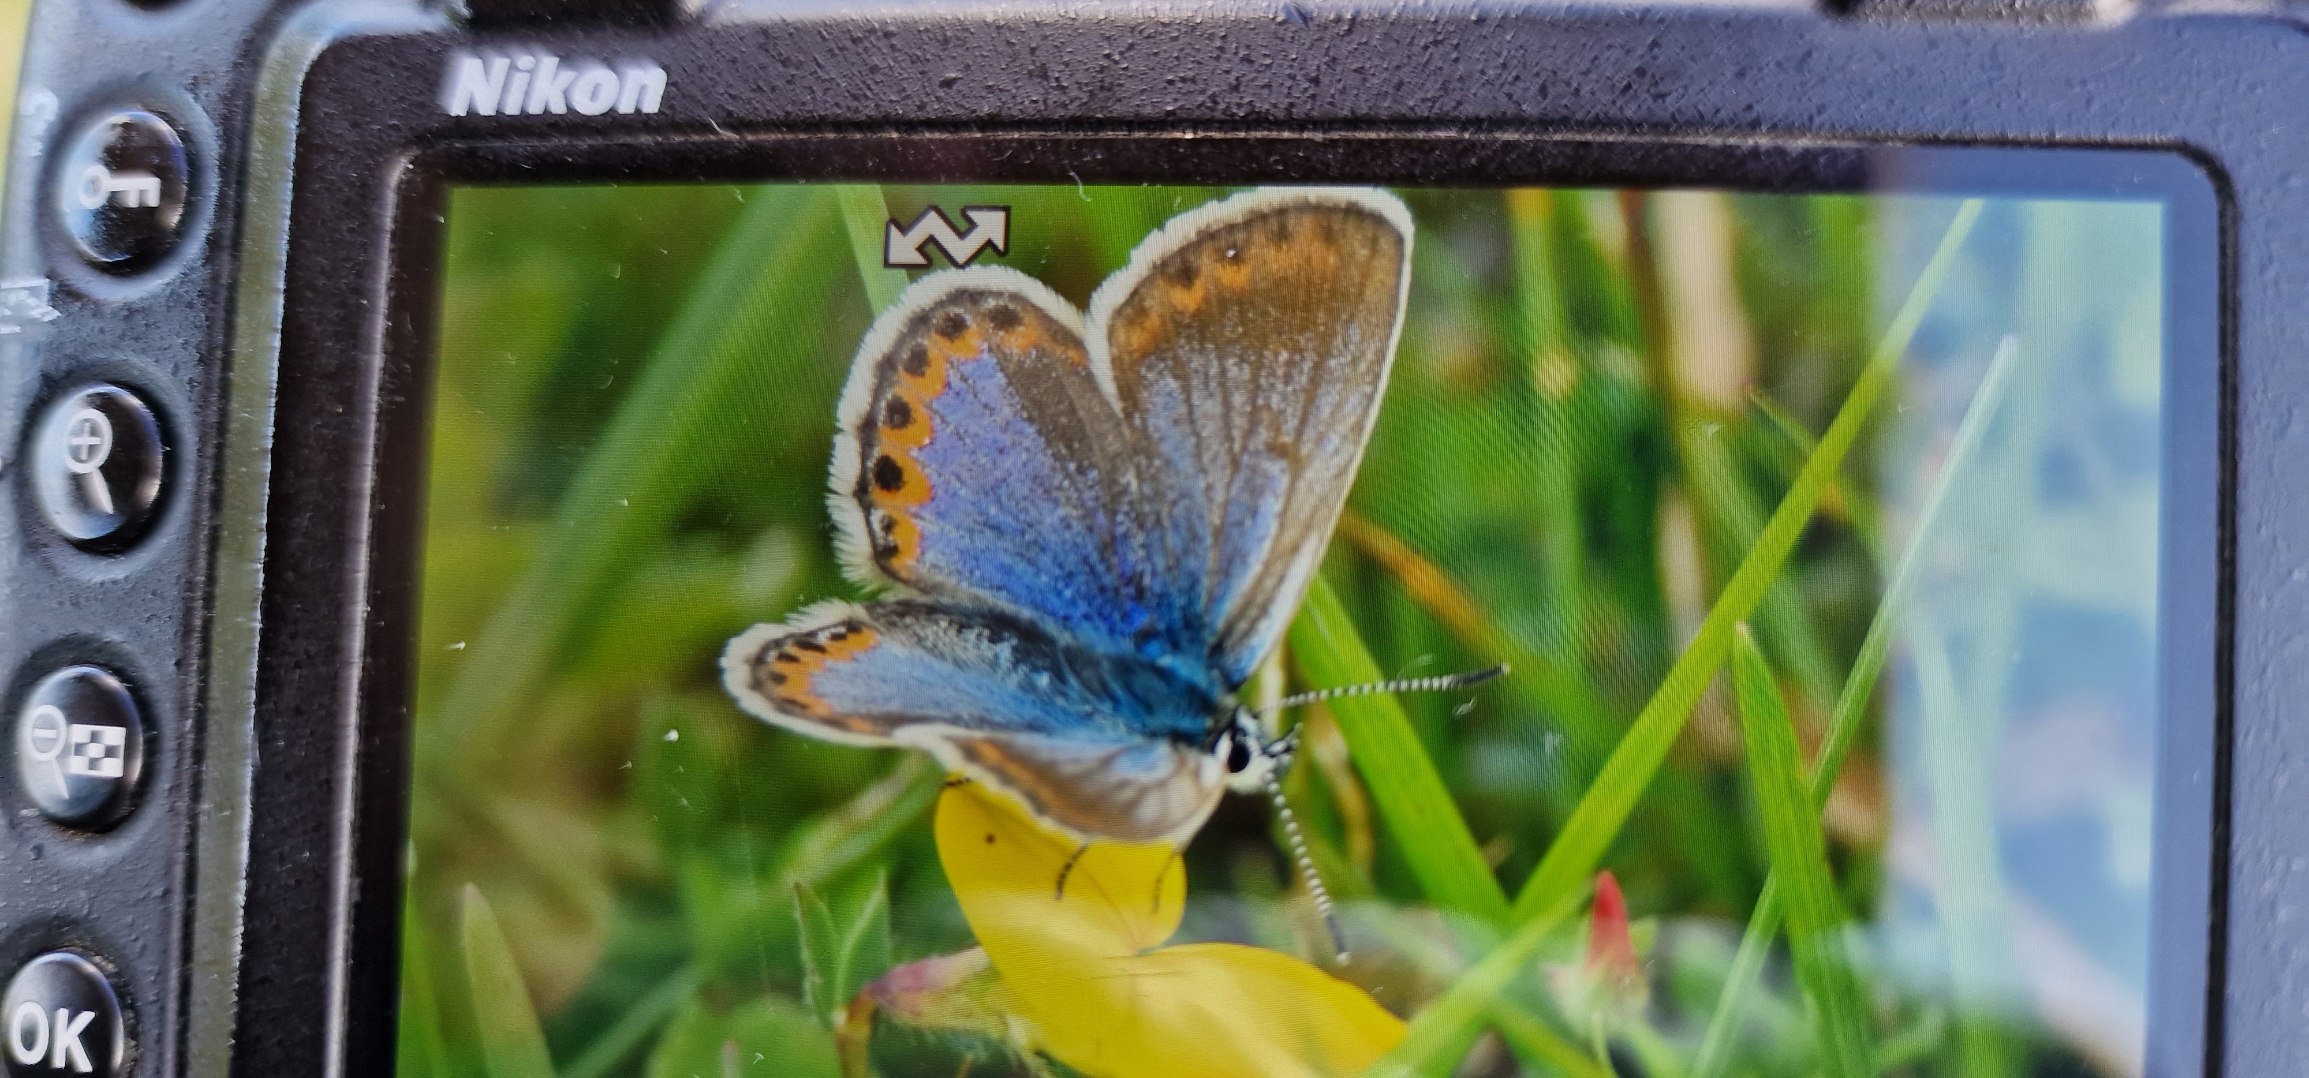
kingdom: Animalia
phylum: Arthropoda
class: Insecta
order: Lepidoptera
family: Lycaenidae
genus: Lycaeides
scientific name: Lycaeides idas
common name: Foranderlig blåfugl
